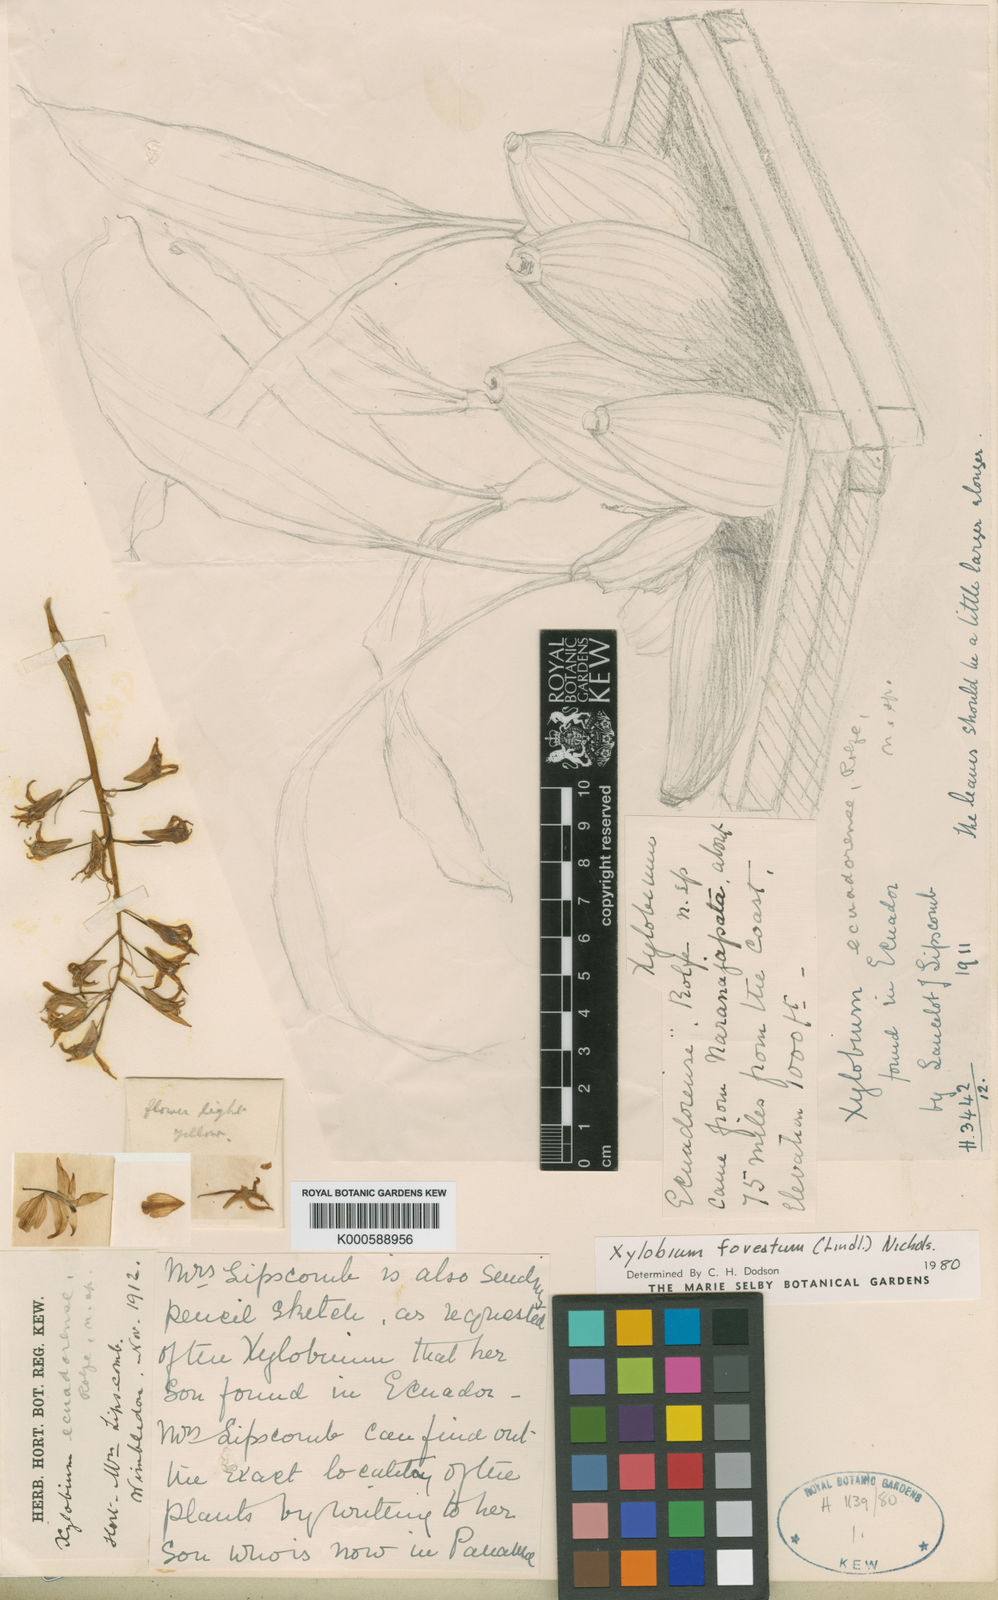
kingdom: Plantae
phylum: Tracheophyta
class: Liliopsida
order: Asparagales
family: Orchidaceae
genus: Xylobium
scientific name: Xylobium foveatum
